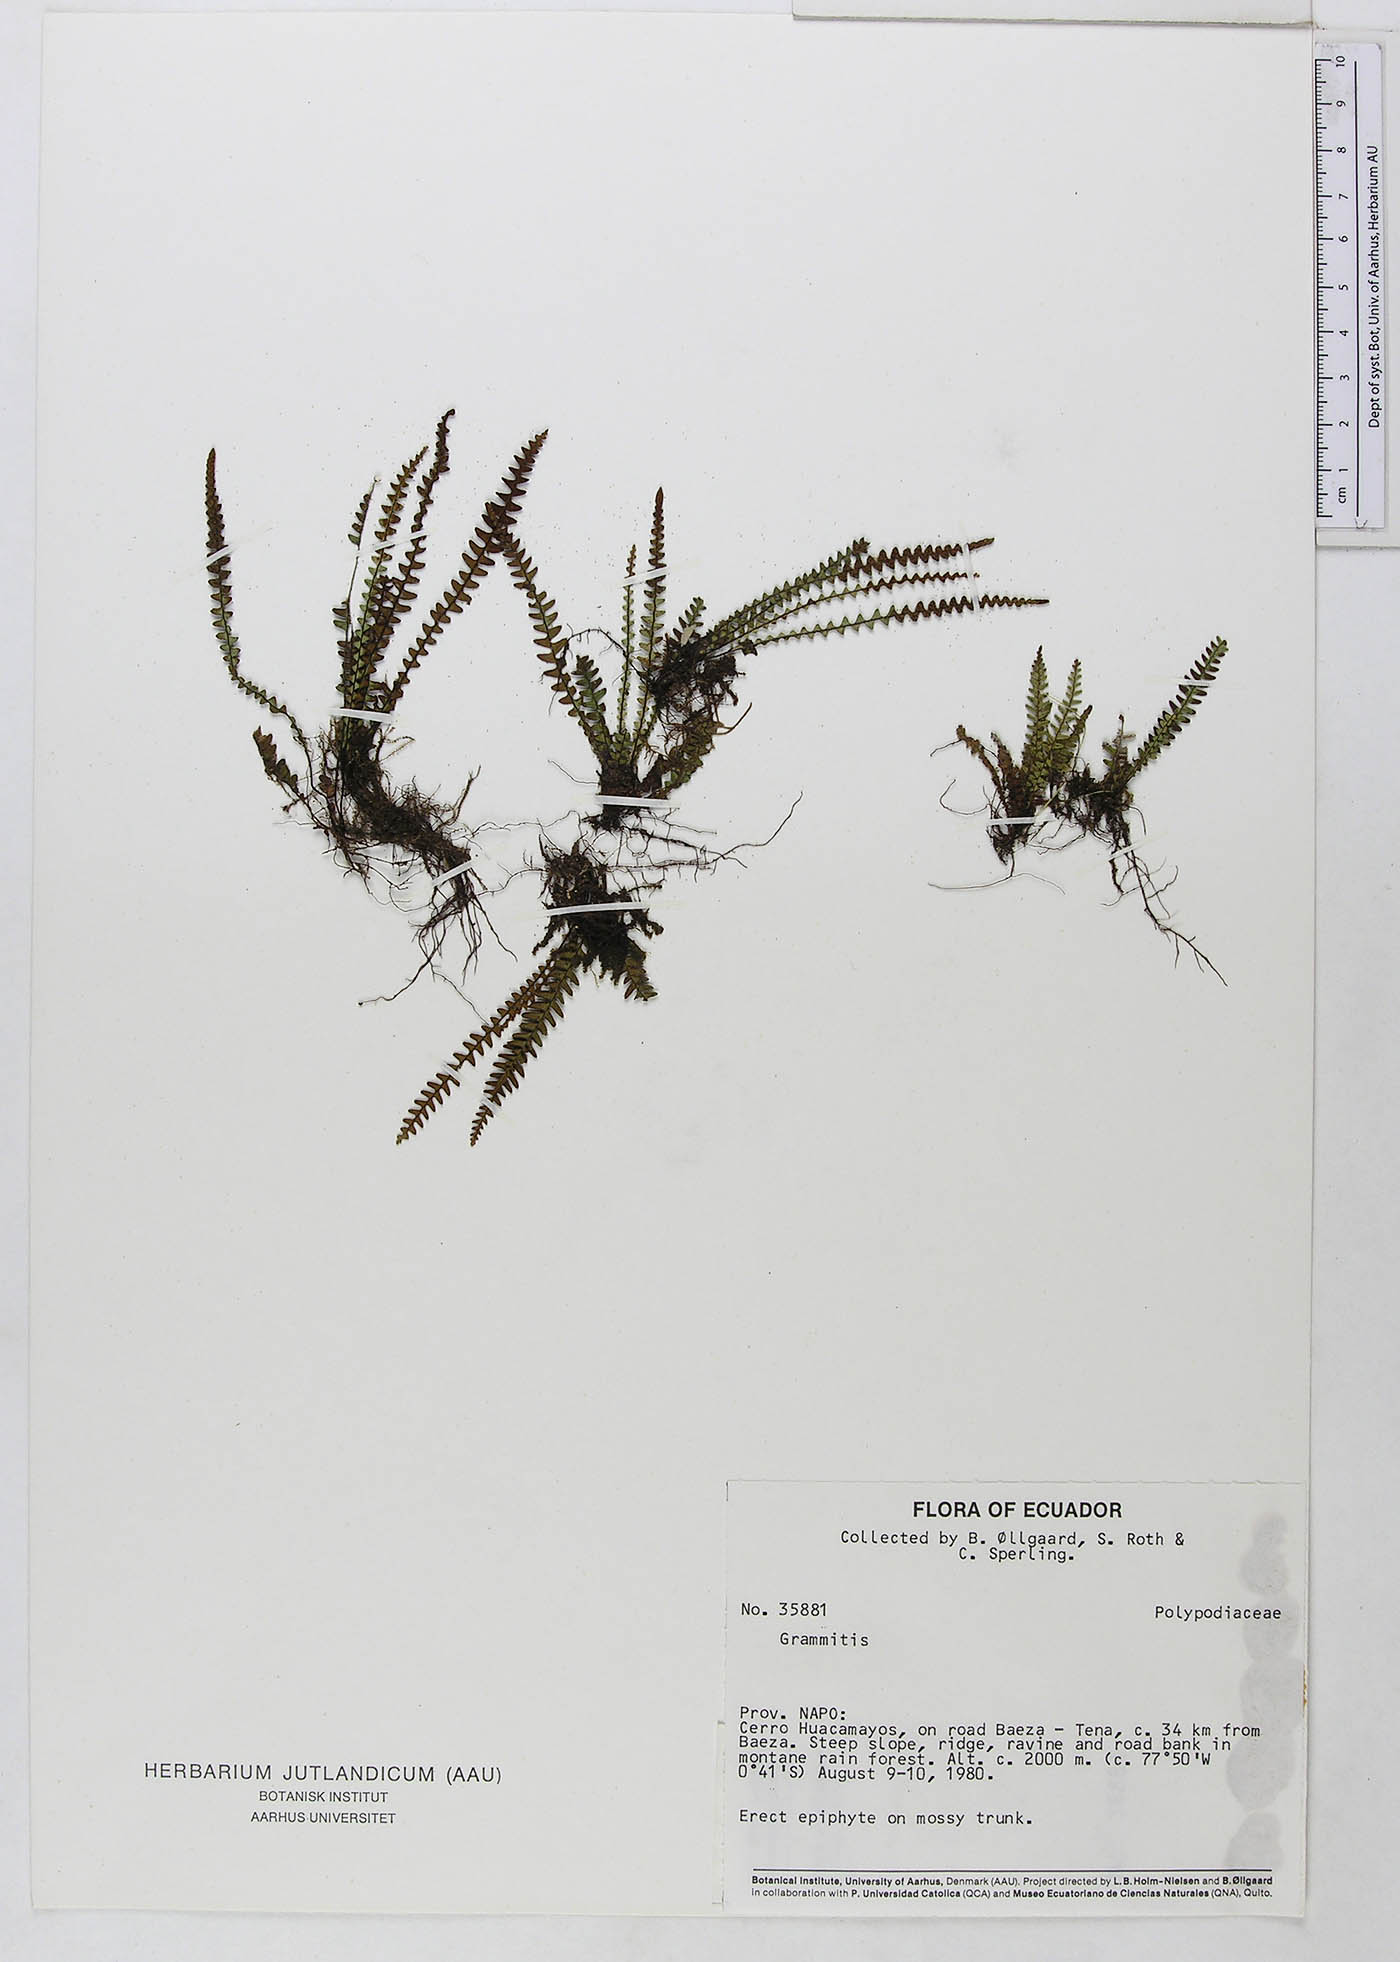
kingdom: Plantae
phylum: Tracheophyta
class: Polypodiopsida
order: Polypodiales
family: Polypodiaceae
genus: Ascogrammitis
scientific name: Ascogrammitis anfractuosa
